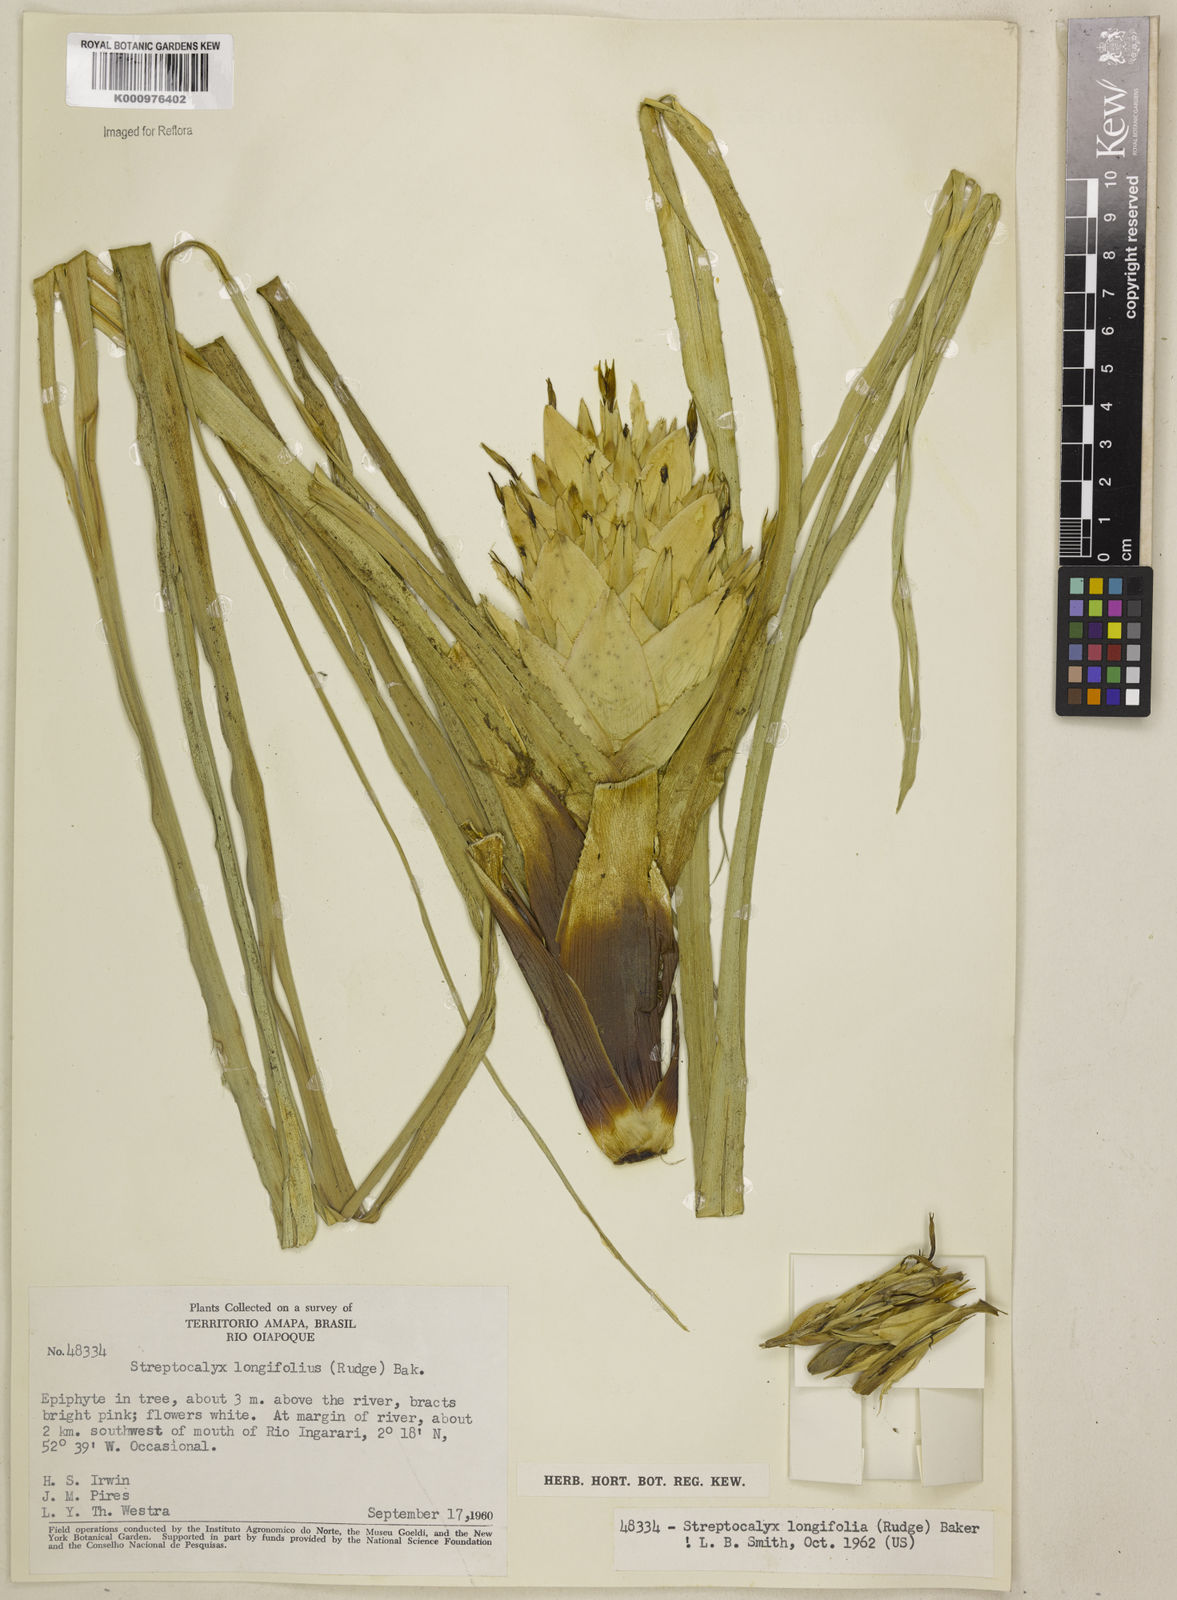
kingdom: Plantae
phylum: Tracheophyta
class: Liliopsida
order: Poales
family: Bromeliaceae
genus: Aechmea
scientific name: Aechmea longifolia
